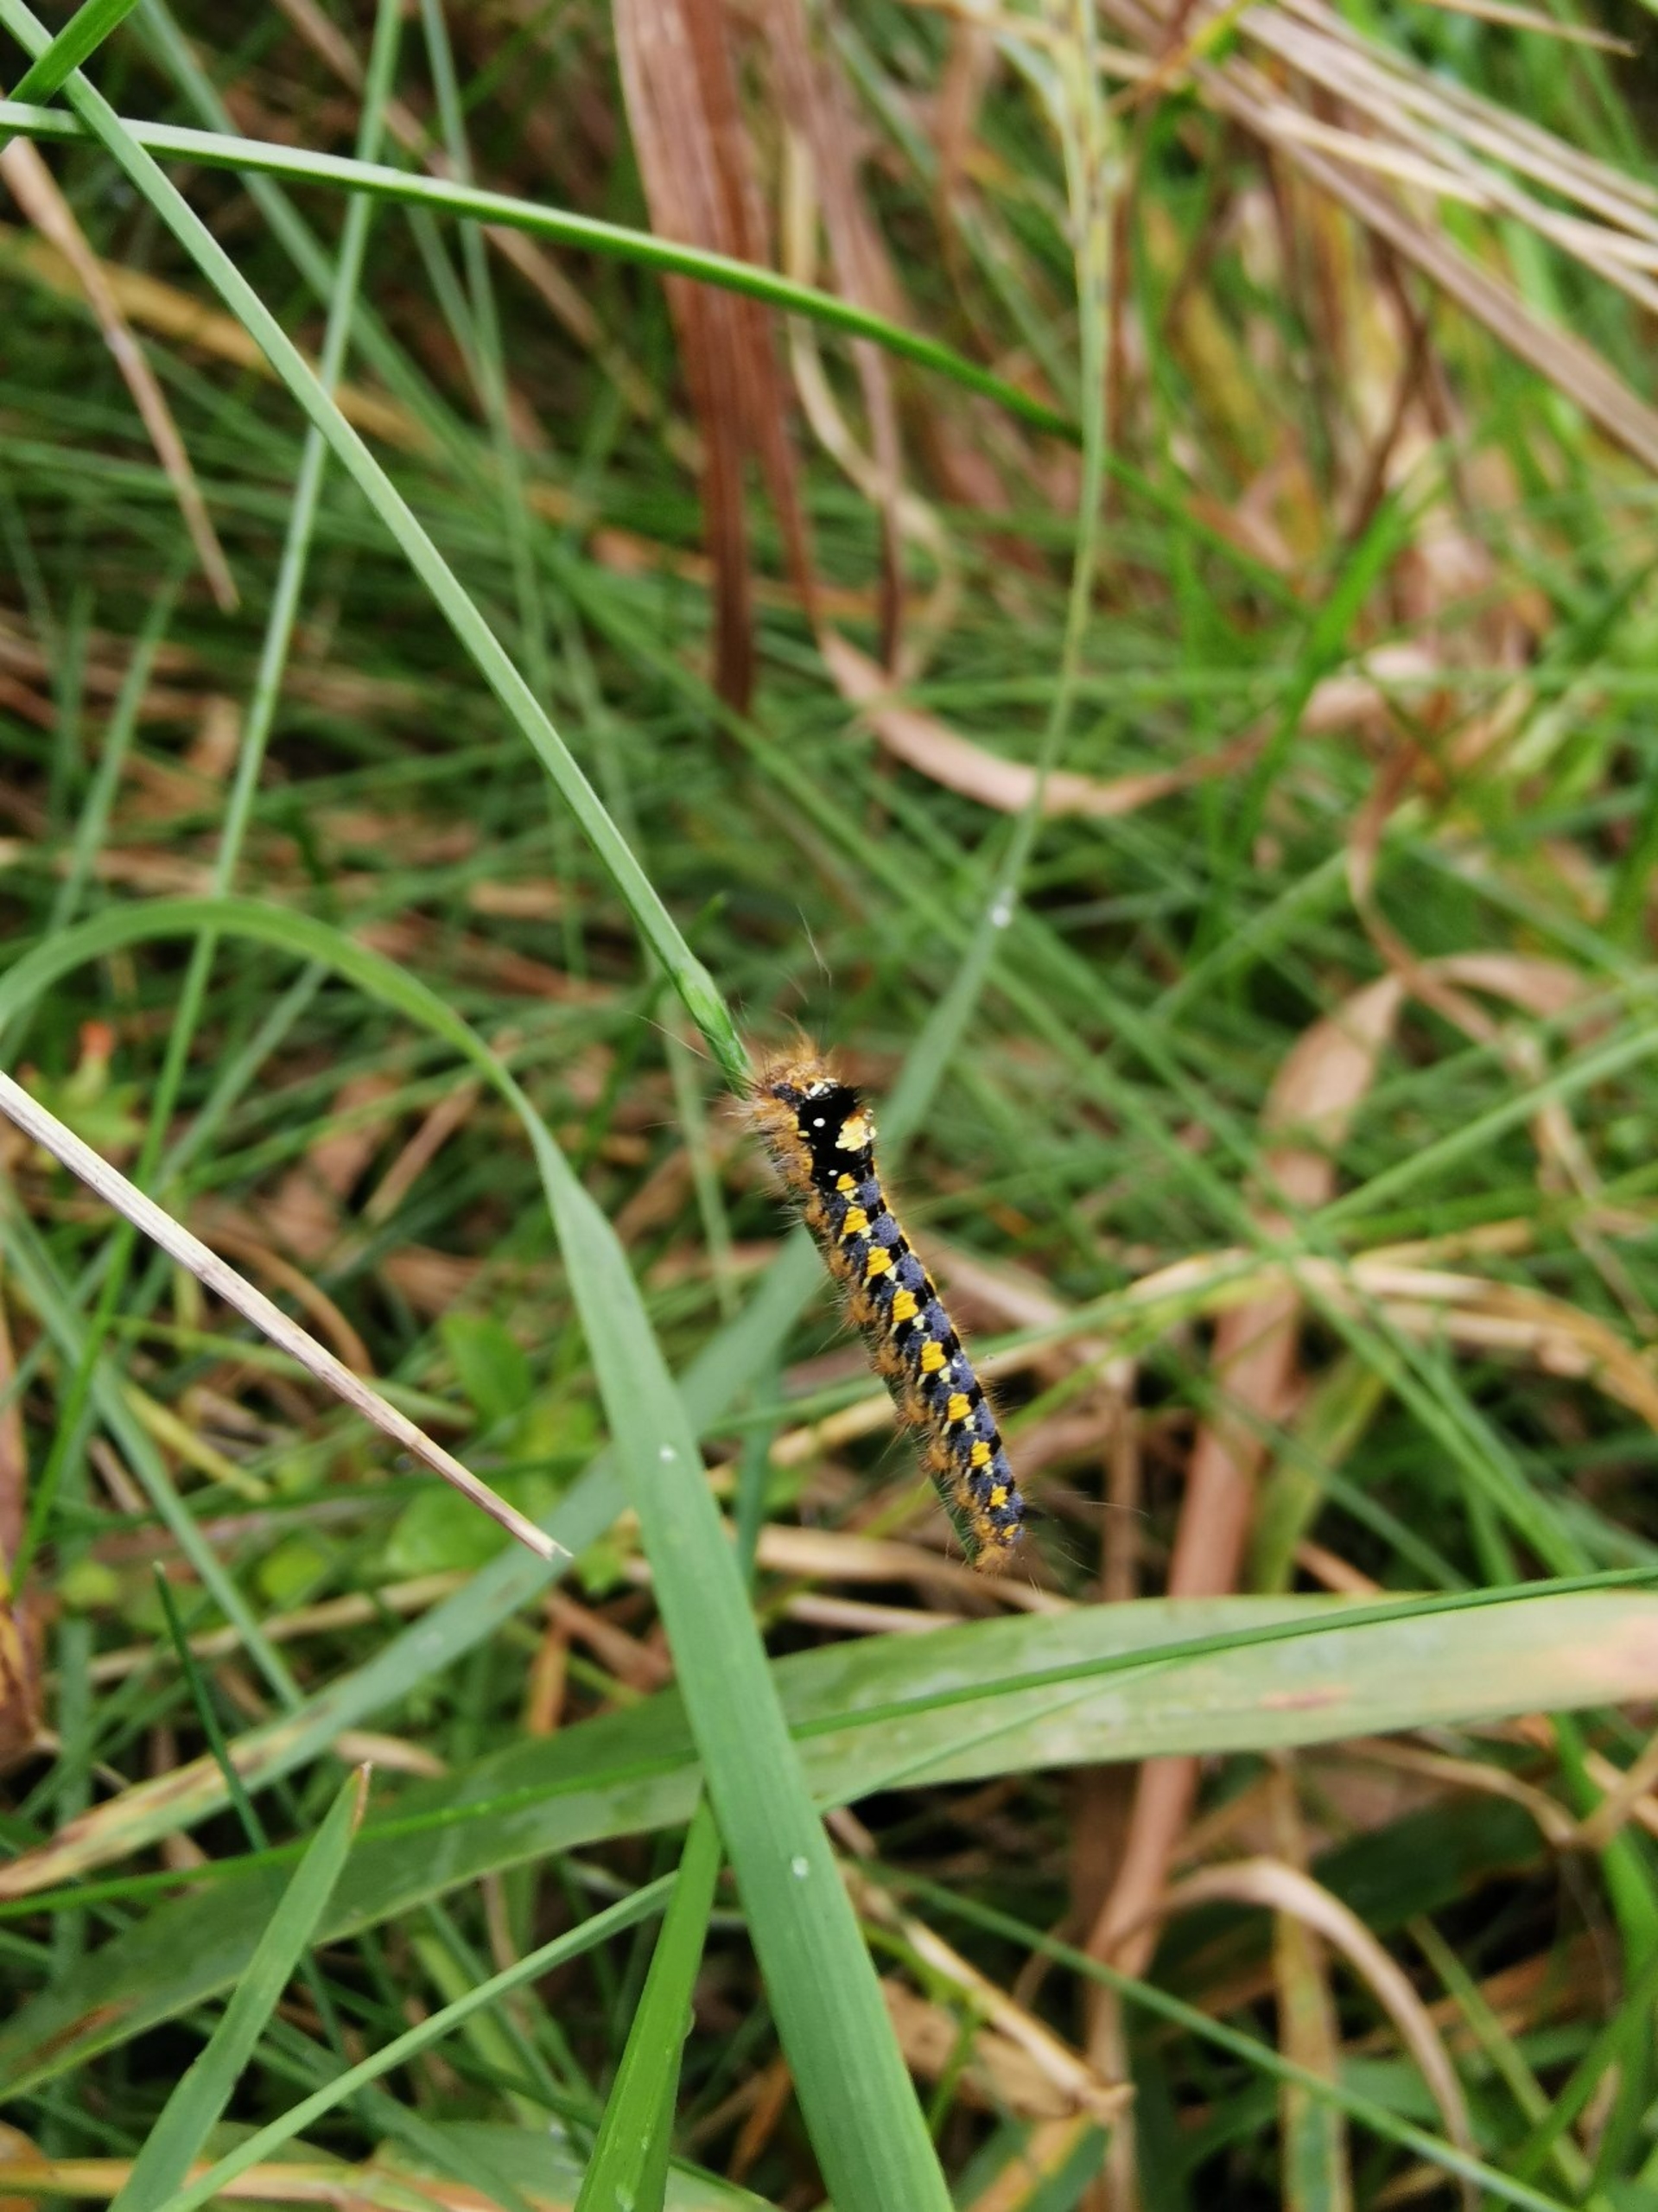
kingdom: Animalia
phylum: Arthropoda
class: Insecta
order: Lepidoptera
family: Lasiocampidae
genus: Euthrix
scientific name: Euthrix potatoria
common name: Græsspinder
